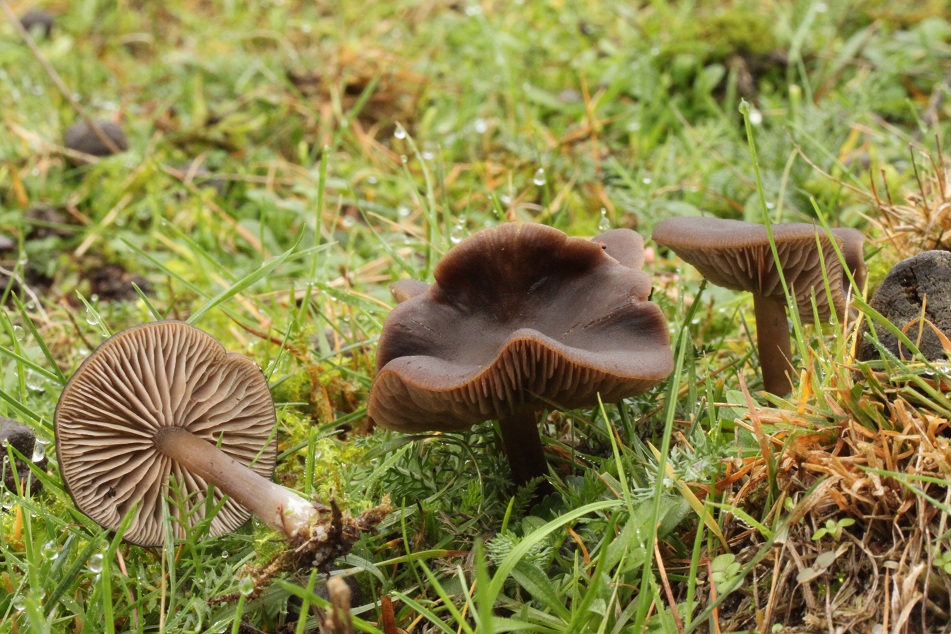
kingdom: Fungi
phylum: Basidiomycota
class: Agaricomycetes
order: Agaricales
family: Entolomataceae
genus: Entoloma
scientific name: Entoloma sericeum
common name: silkeglinsende rødblad
